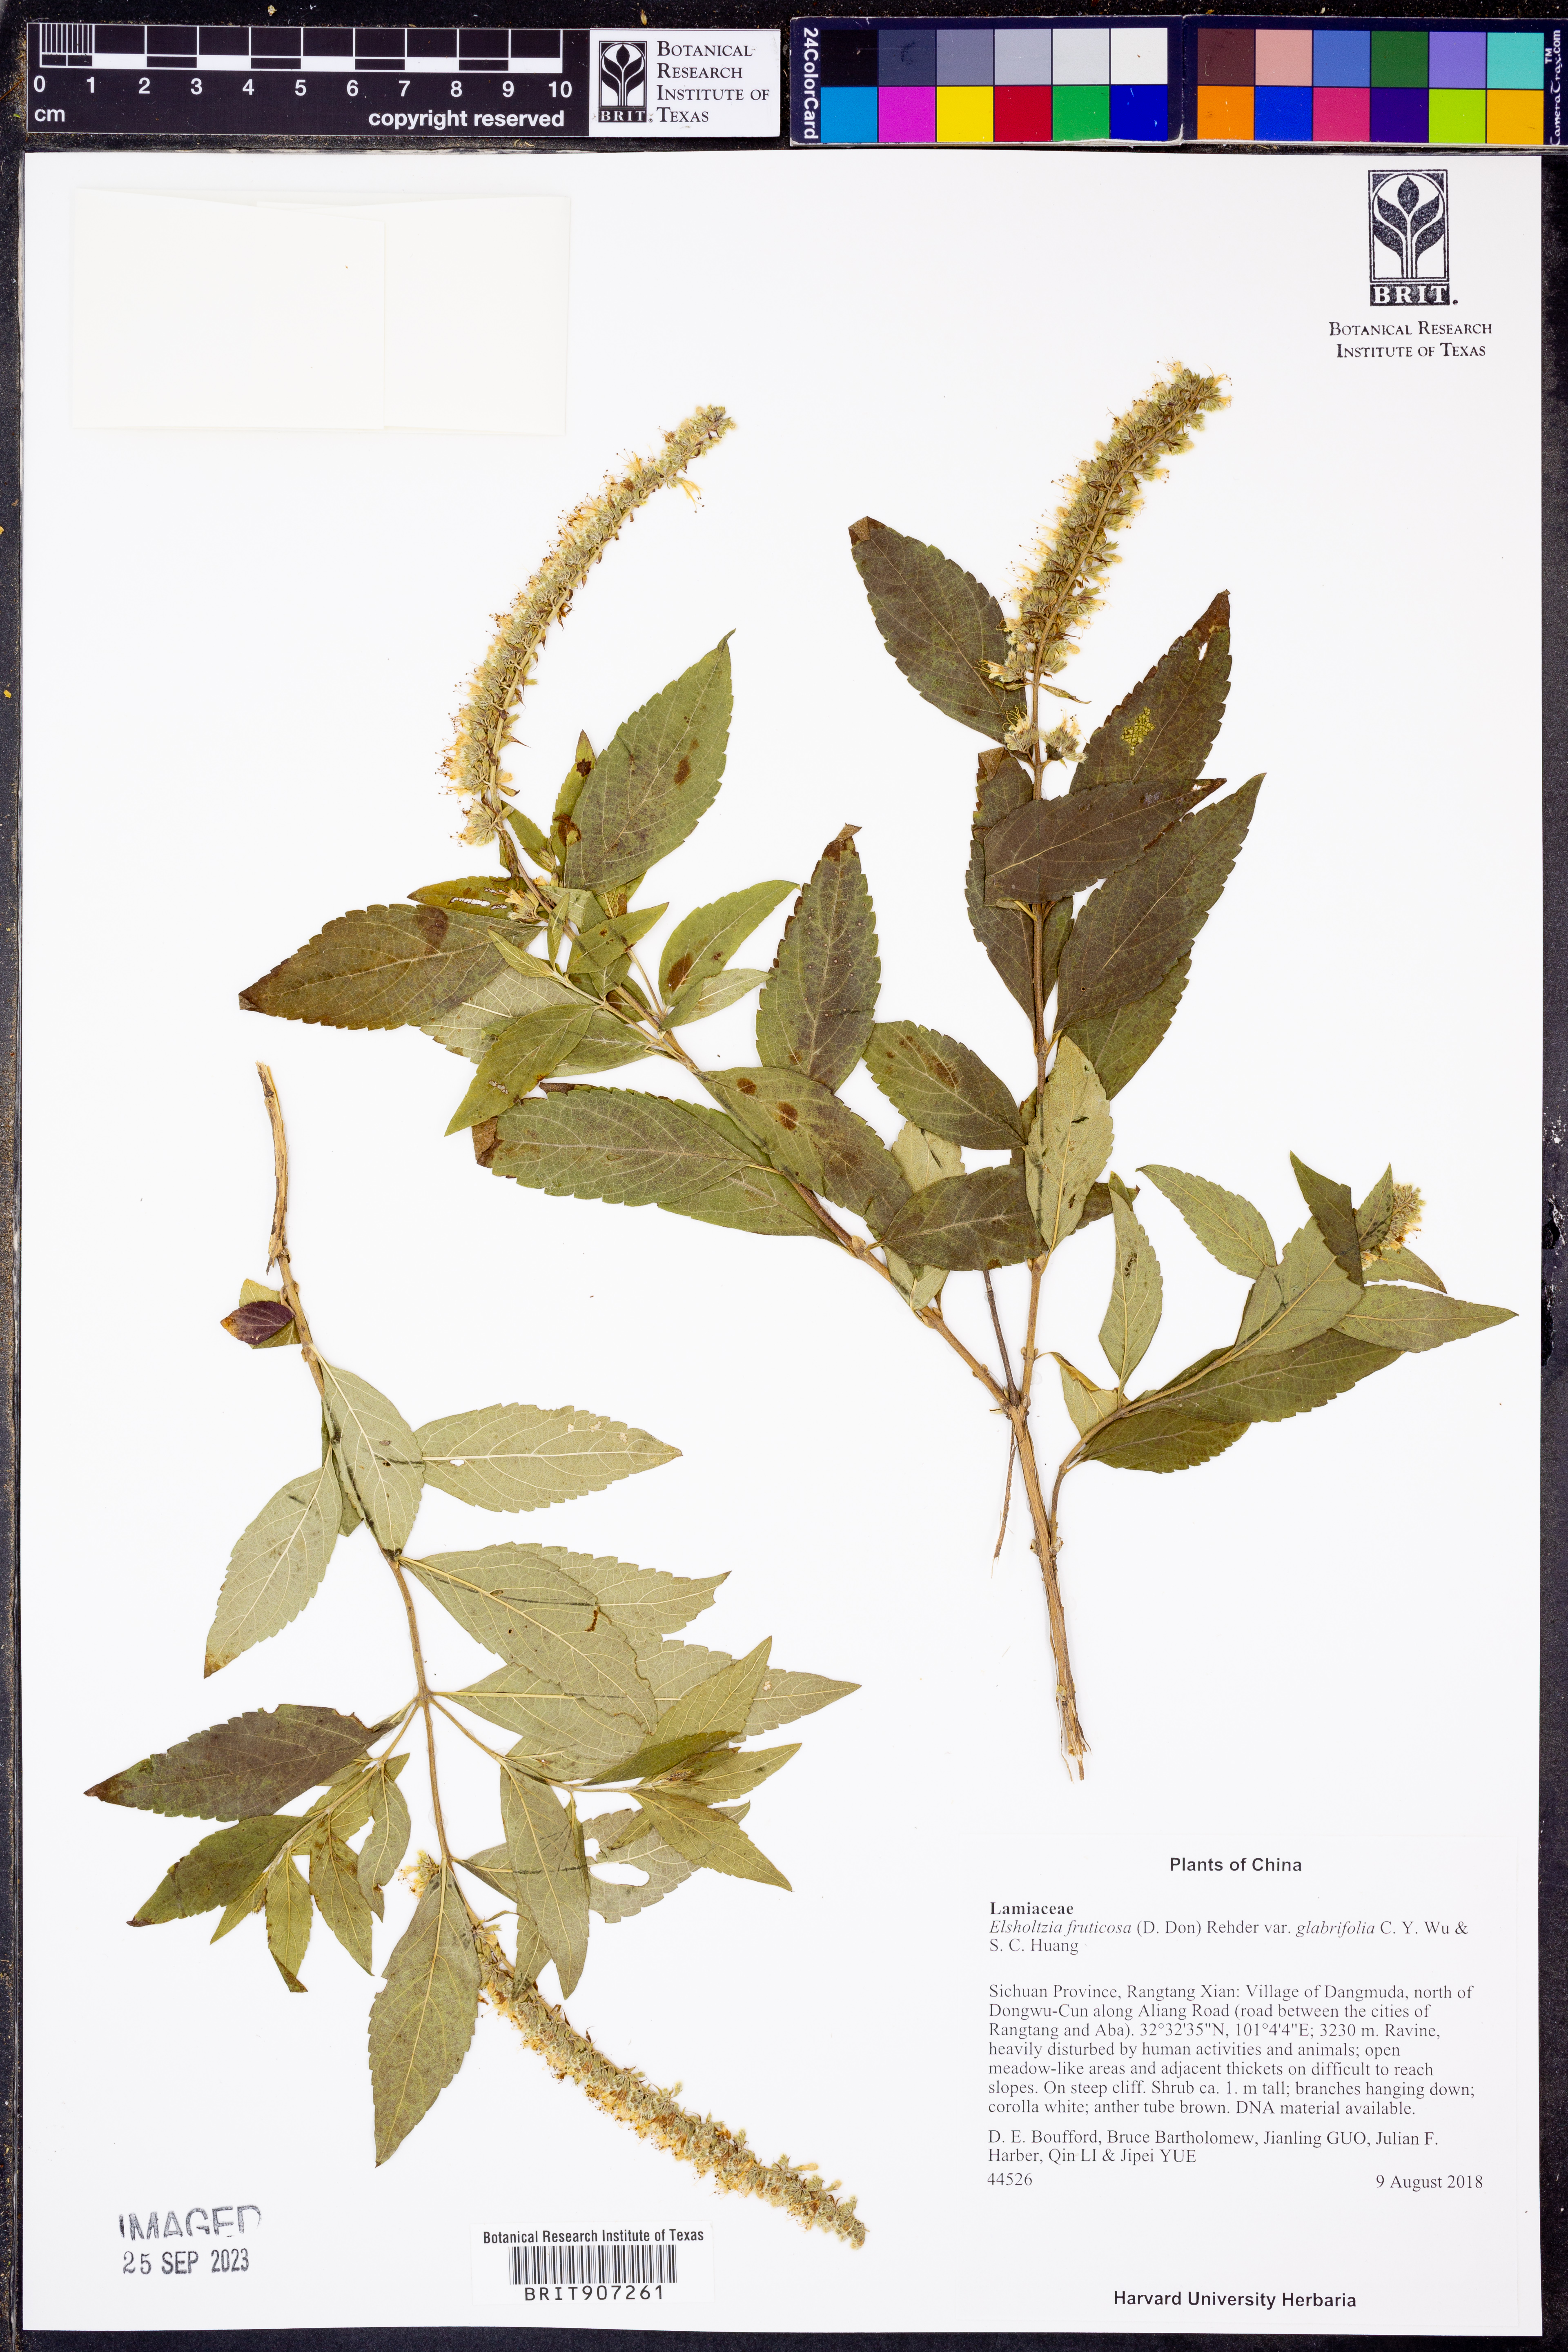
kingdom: Plantae
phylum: Tracheophyta
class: Magnoliopsida
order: Lamiales
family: Lamiaceae
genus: Elsholtzia
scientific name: Elsholtzia fruticosa
